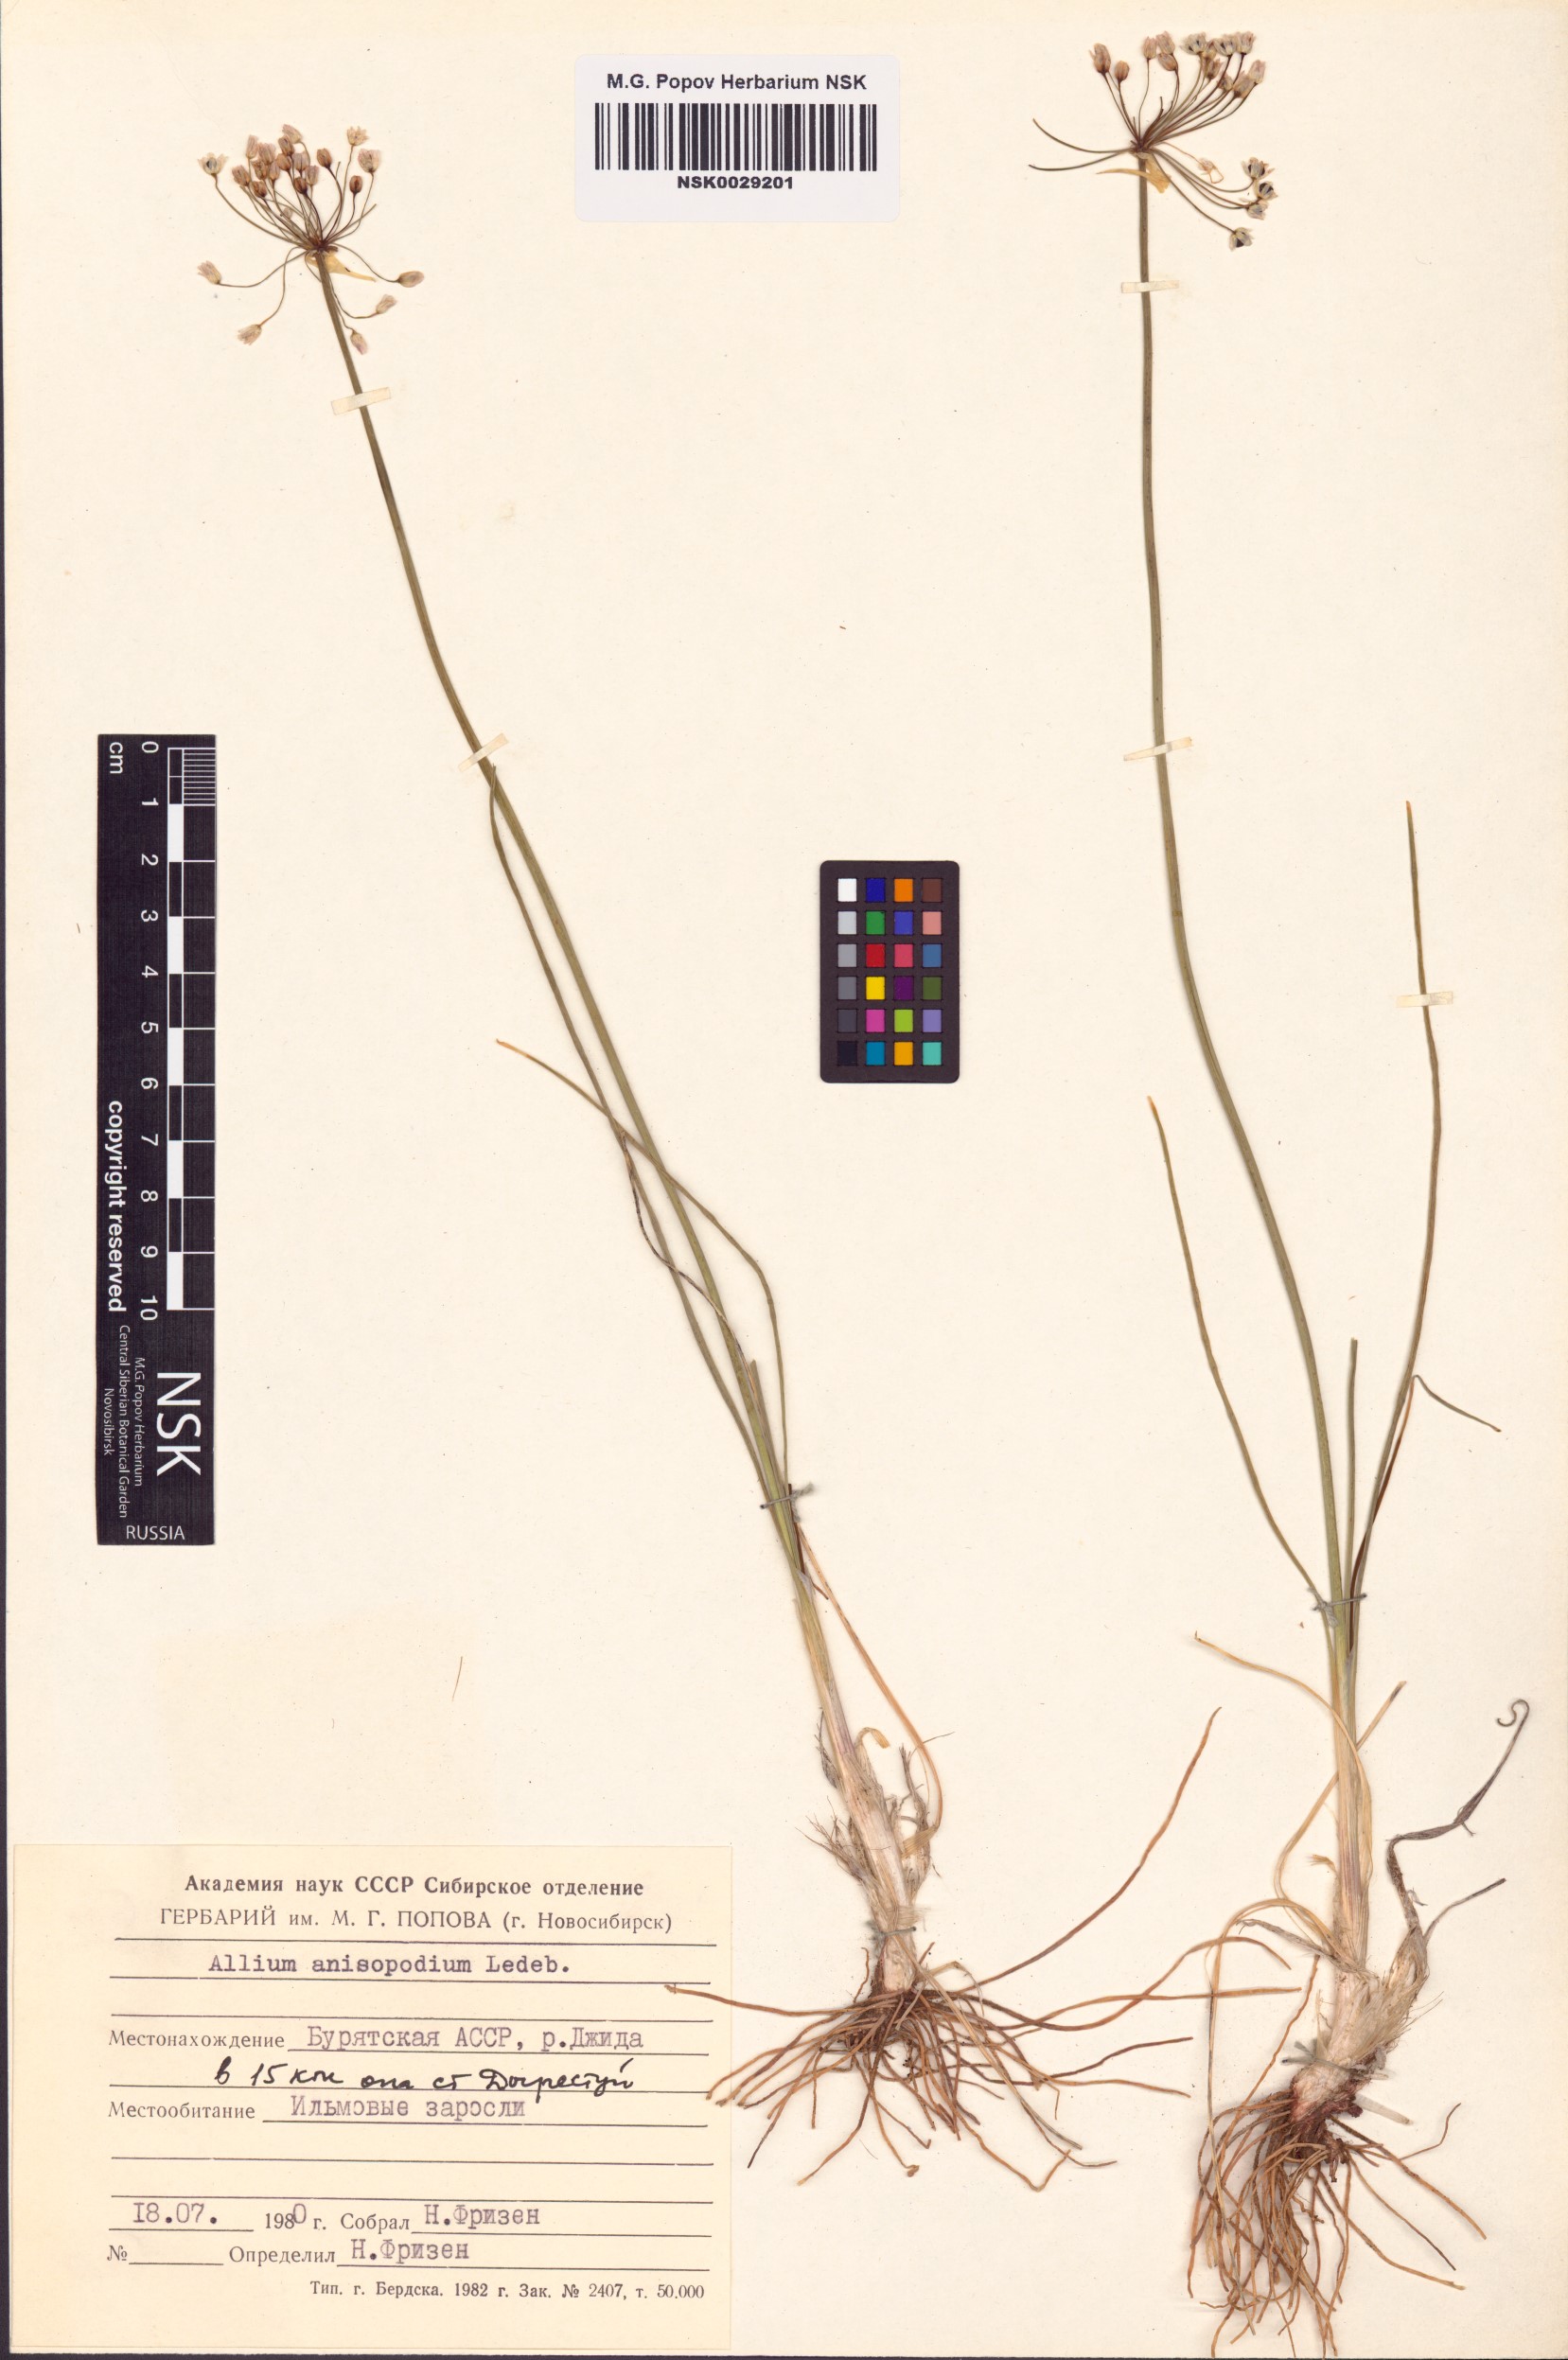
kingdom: Plantae
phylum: Tracheophyta
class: Liliopsida
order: Asparagales
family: Amaryllidaceae
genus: Allium
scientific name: Allium anisopodium
